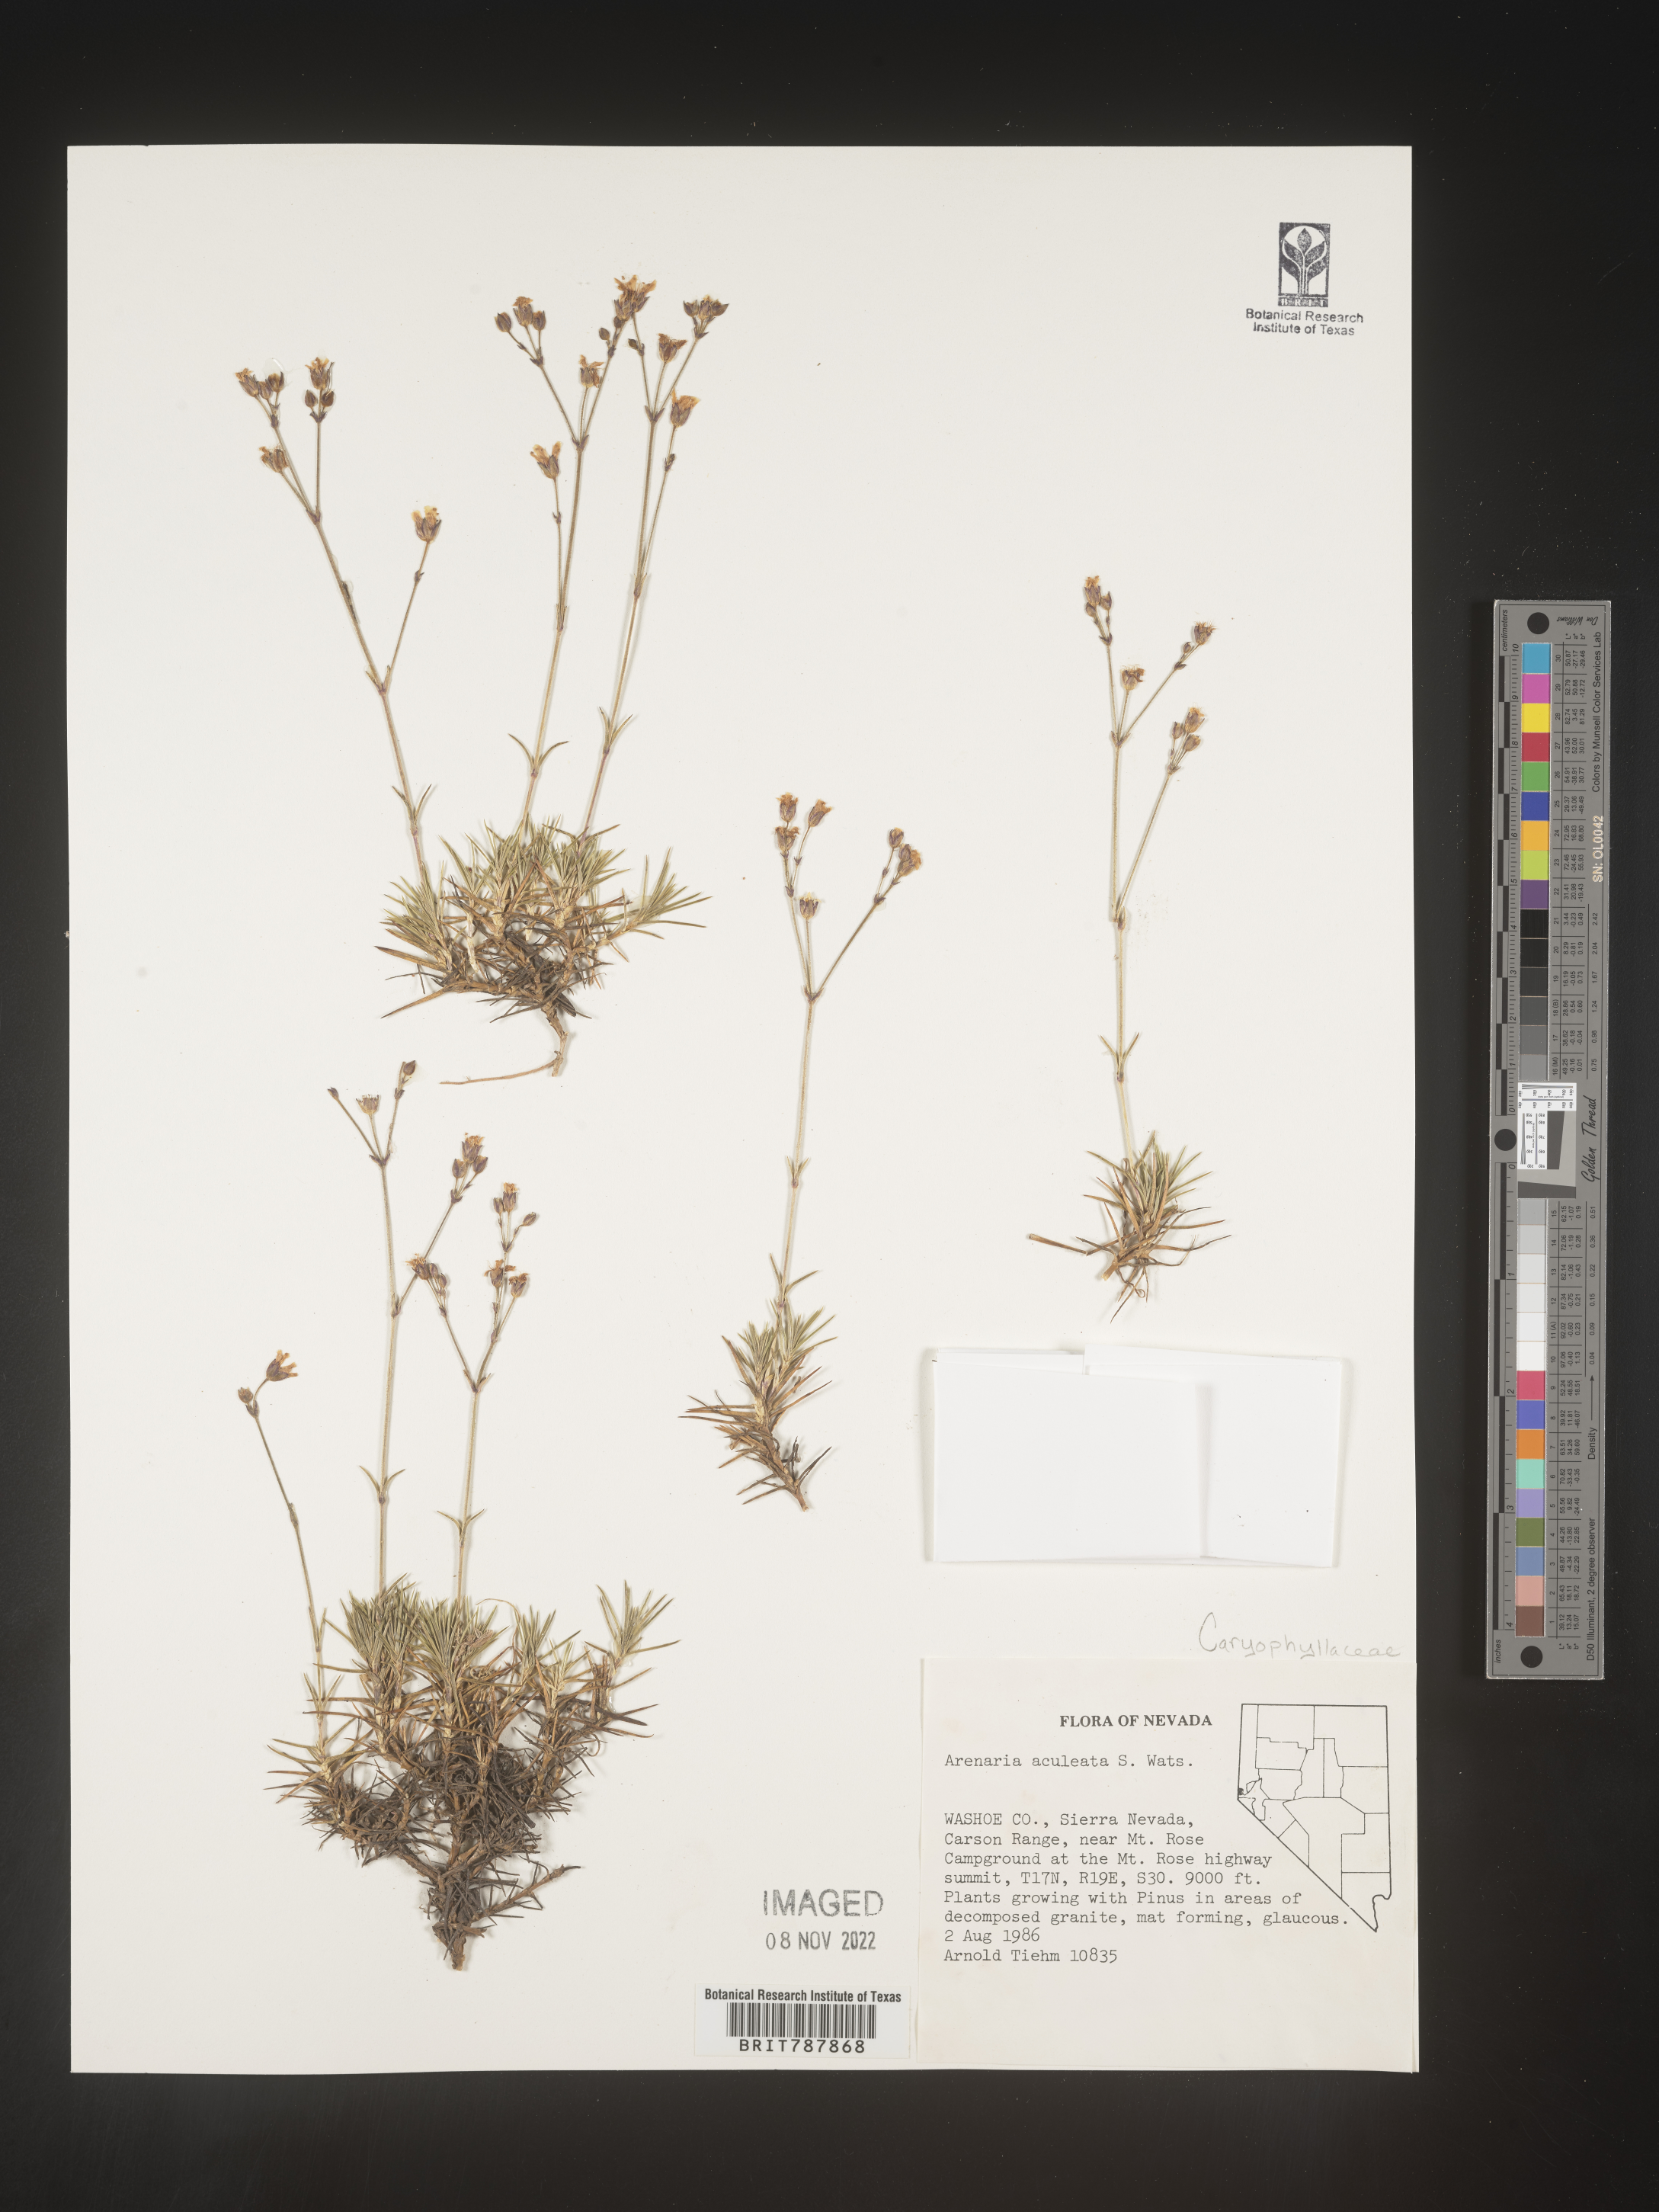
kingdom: Plantae
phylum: Tracheophyta
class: Magnoliopsida
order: Caryophyllales
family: Caryophyllaceae
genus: Arenaria
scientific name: Arenaria
